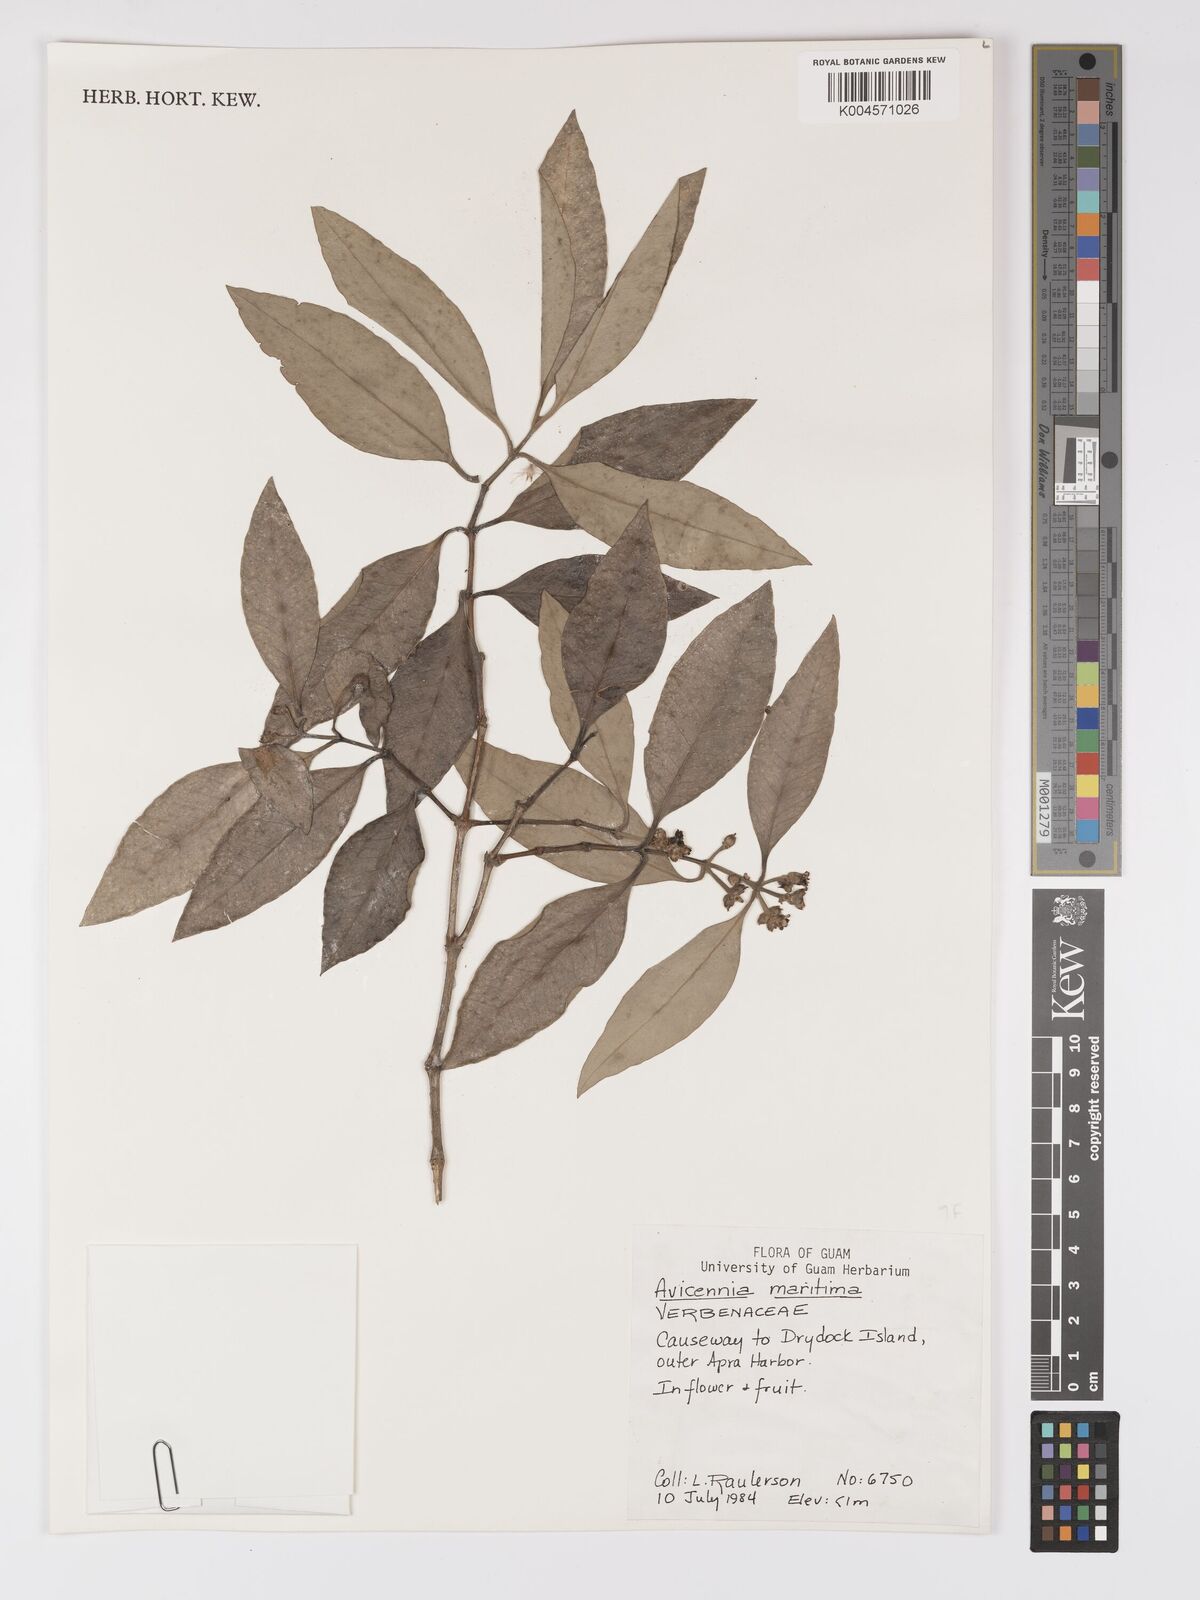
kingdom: Plantae
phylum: Tracheophyta
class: Magnoliopsida
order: Lamiales
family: Acanthaceae
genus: Avicennia
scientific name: Avicennia
